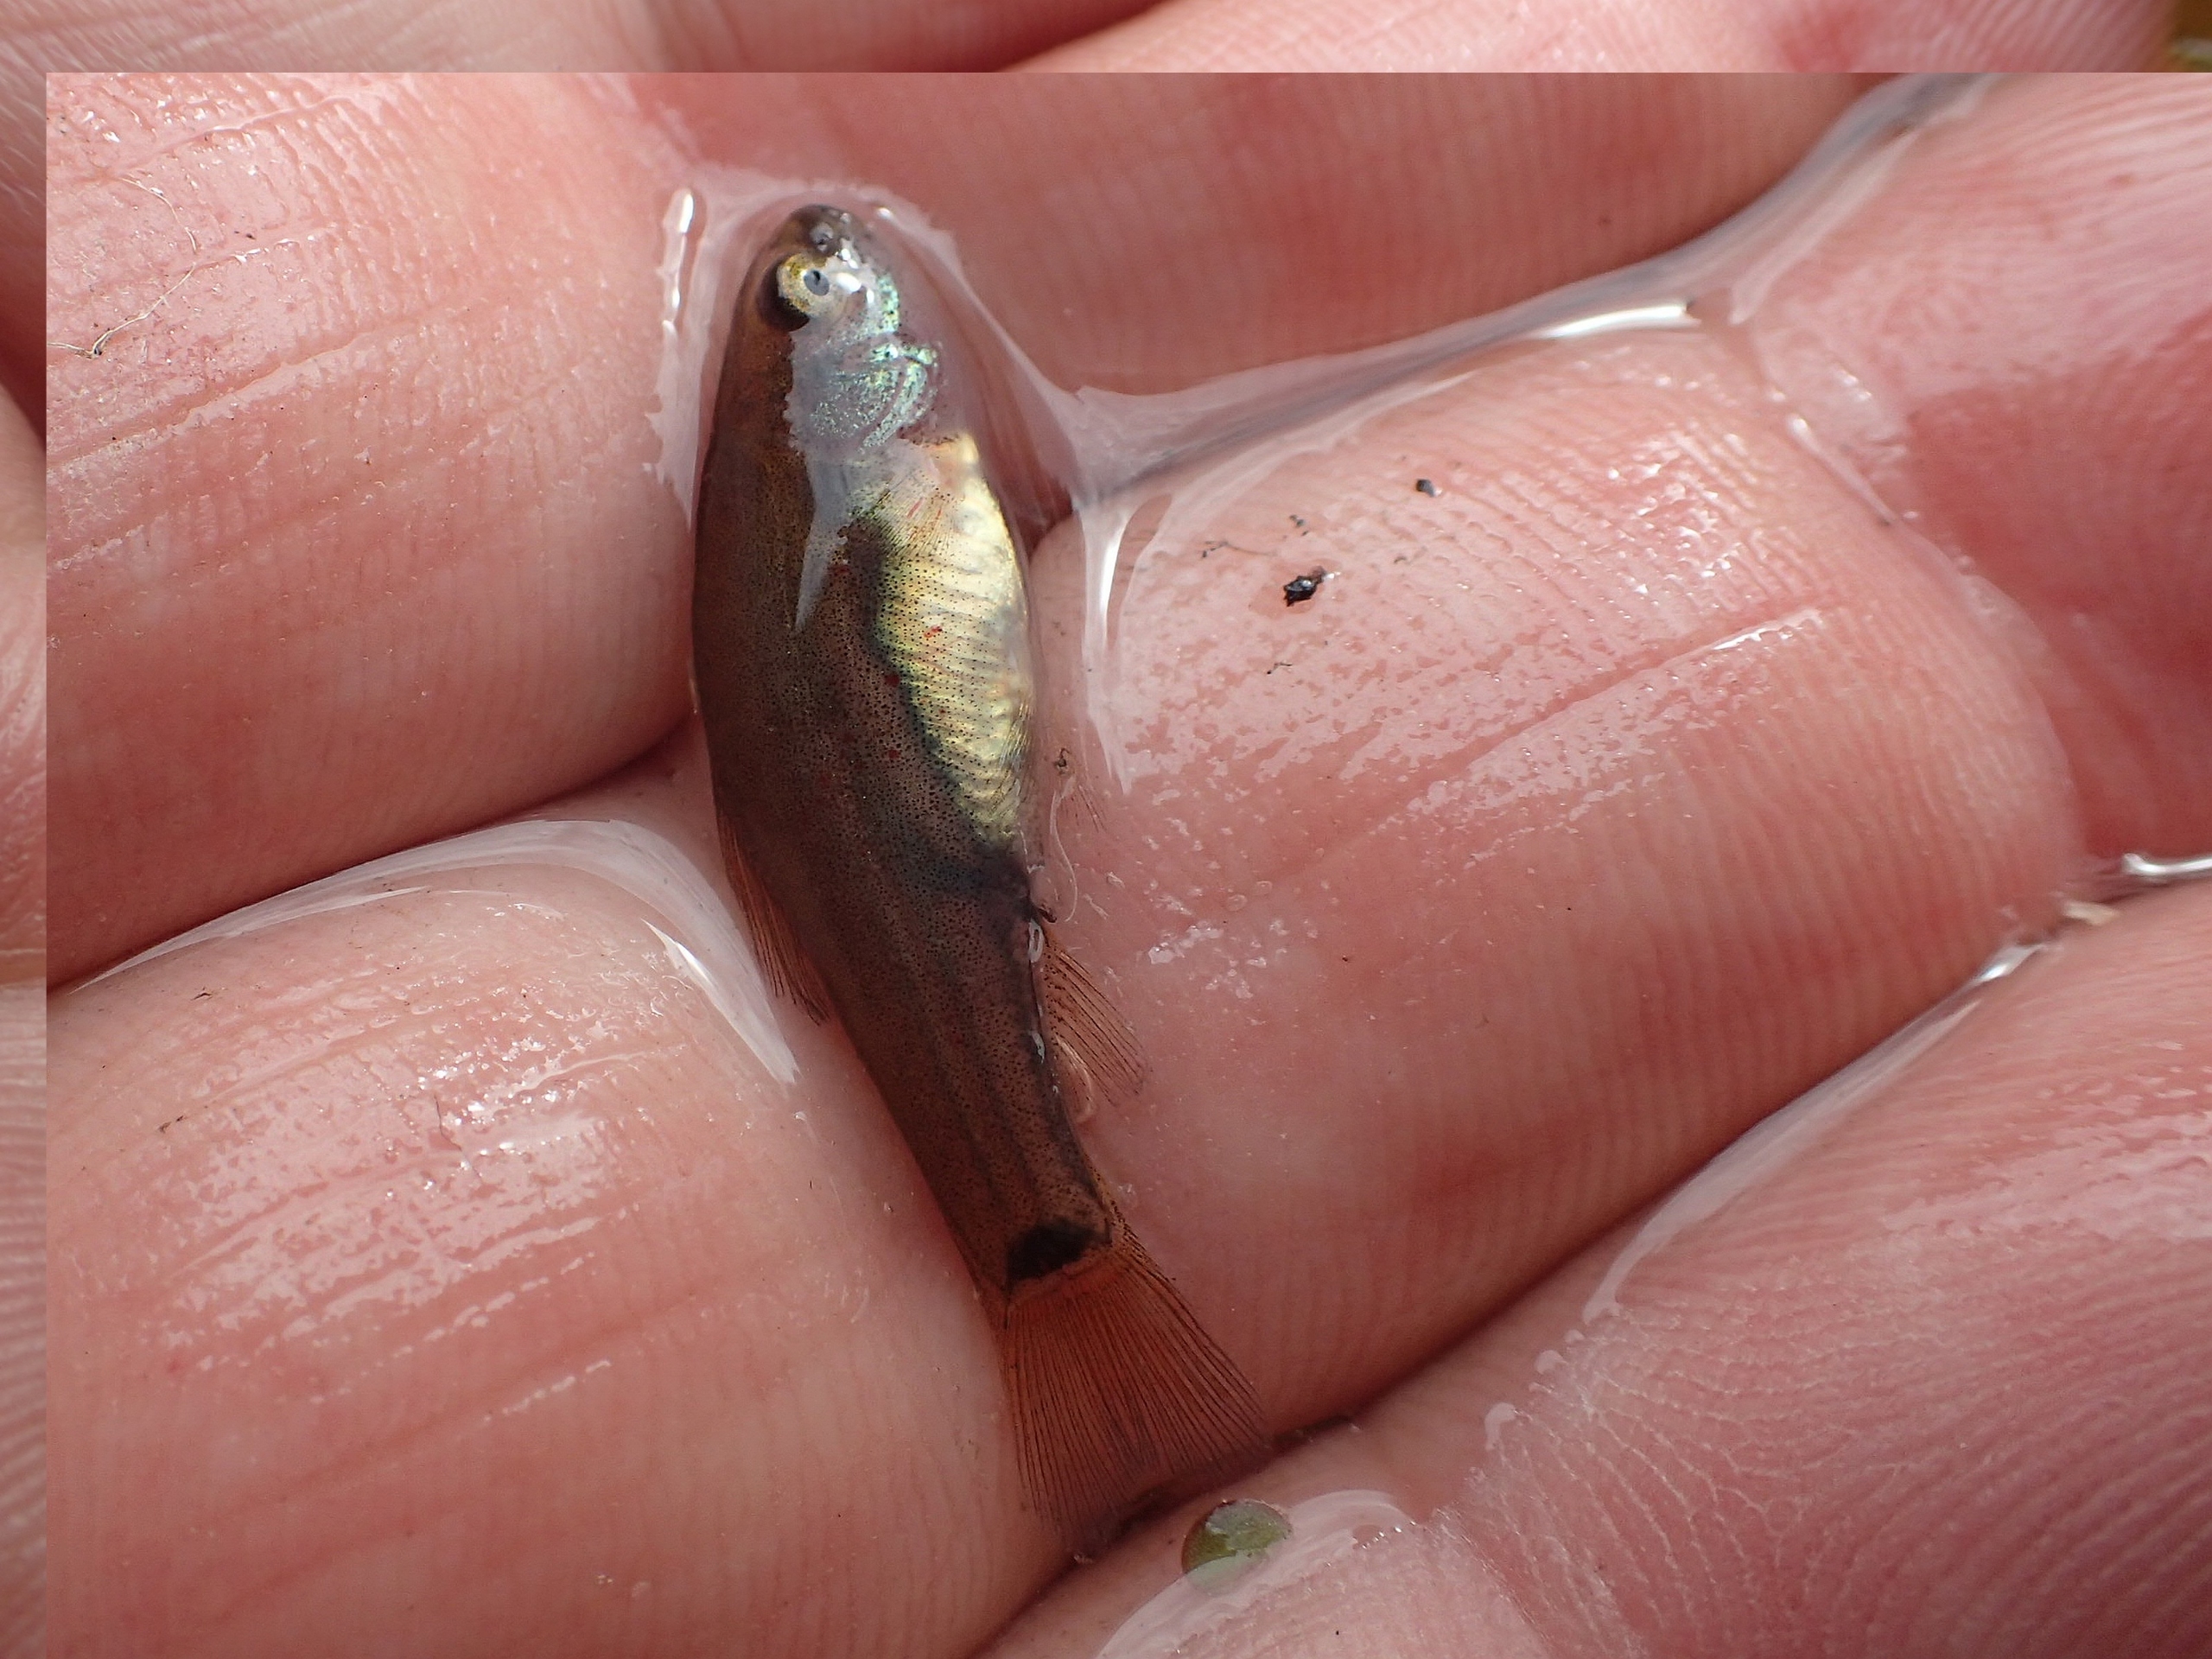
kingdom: Animalia
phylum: Chordata
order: Cypriniformes
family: Cyprinidae
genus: Tinca
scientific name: Tinca tinca
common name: Suder
